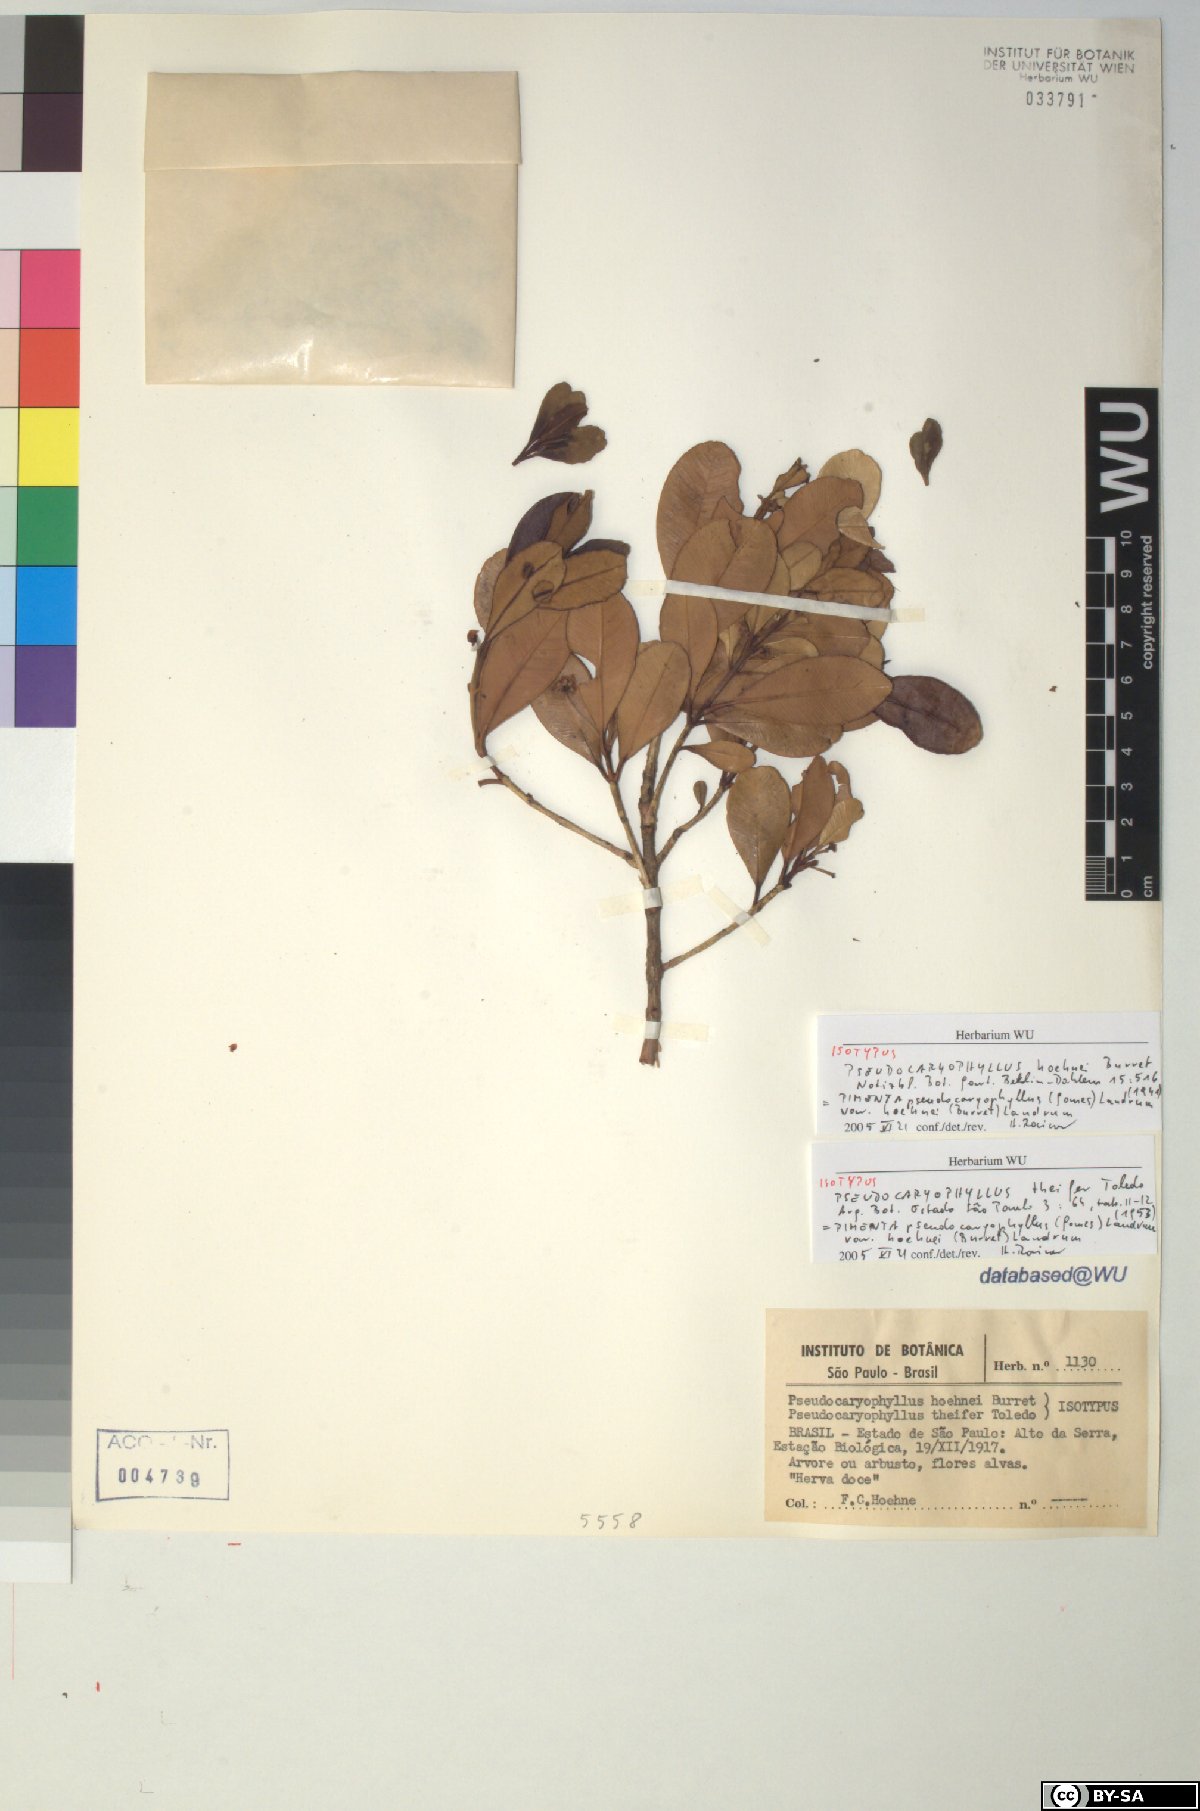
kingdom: Plantae
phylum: Tracheophyta
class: Magnoliopsida
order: Myrtales
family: Myrtaceae
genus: Pimenta
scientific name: Pimenta pseudocaryophyllus
